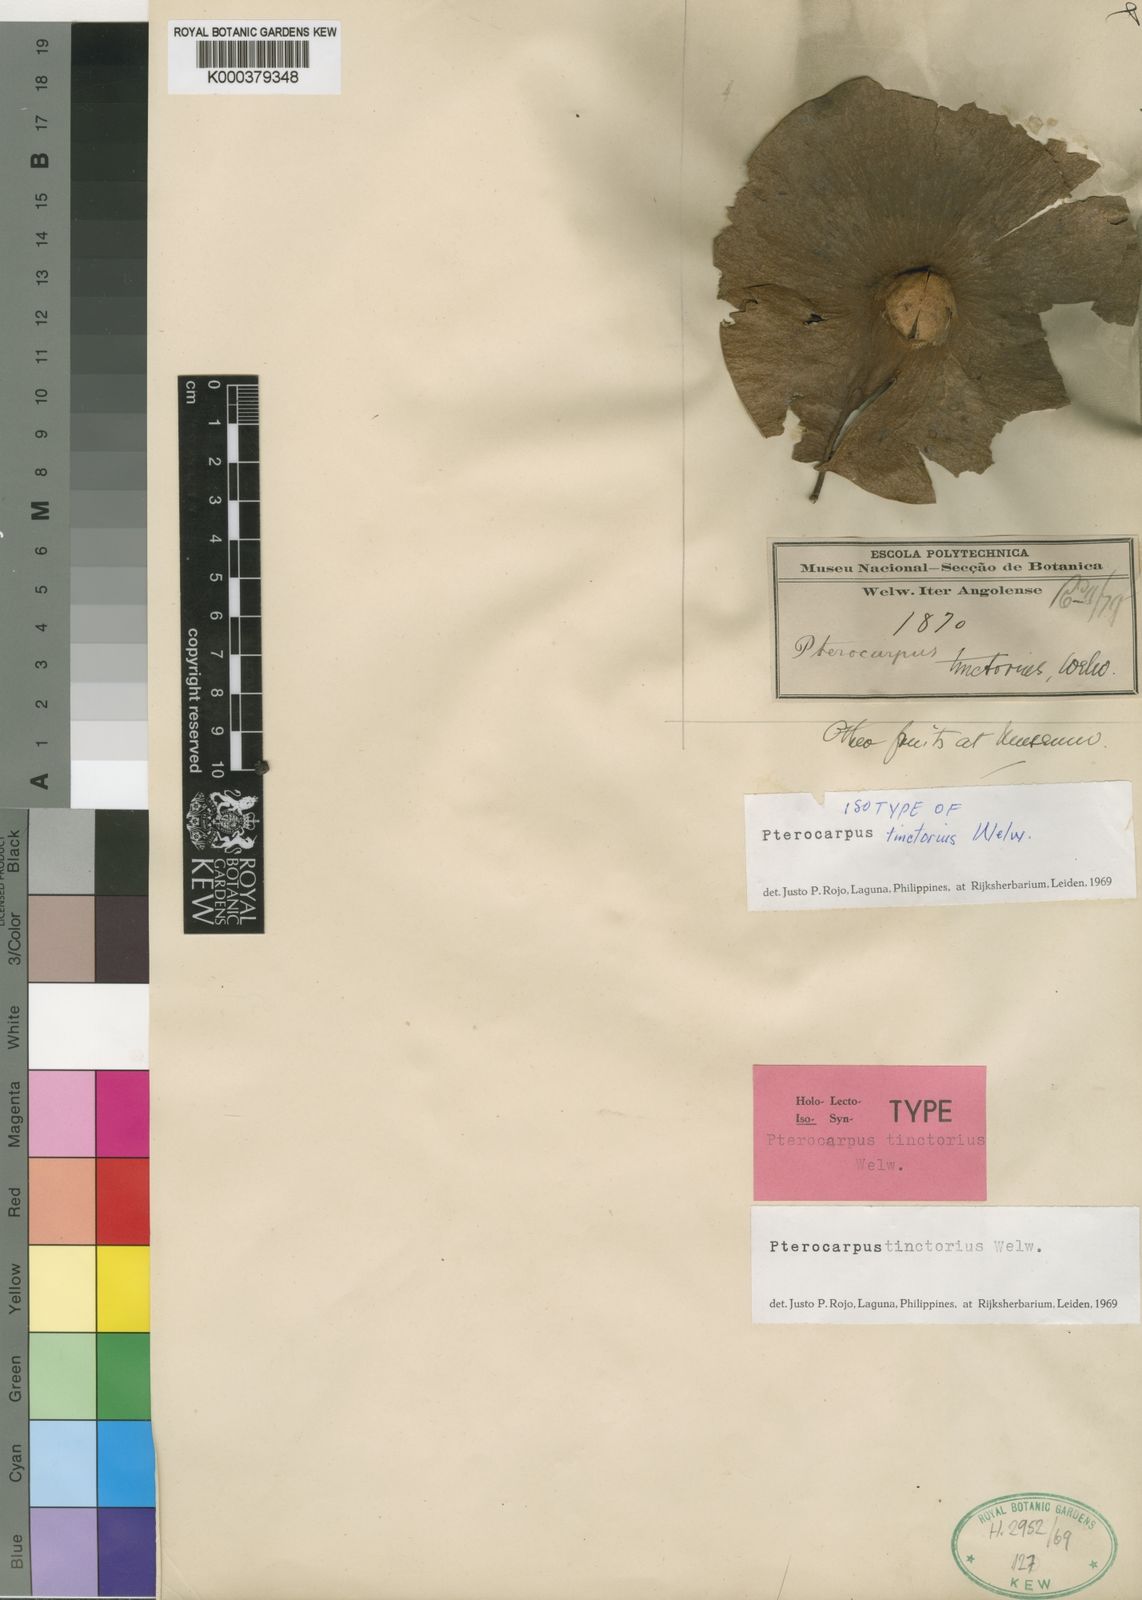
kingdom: Plantae
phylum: Tracheophyta
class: Magnoliopsida
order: Fabales
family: Fabaceae
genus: Pterocarpus
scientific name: Pterocarpus tinctorius
